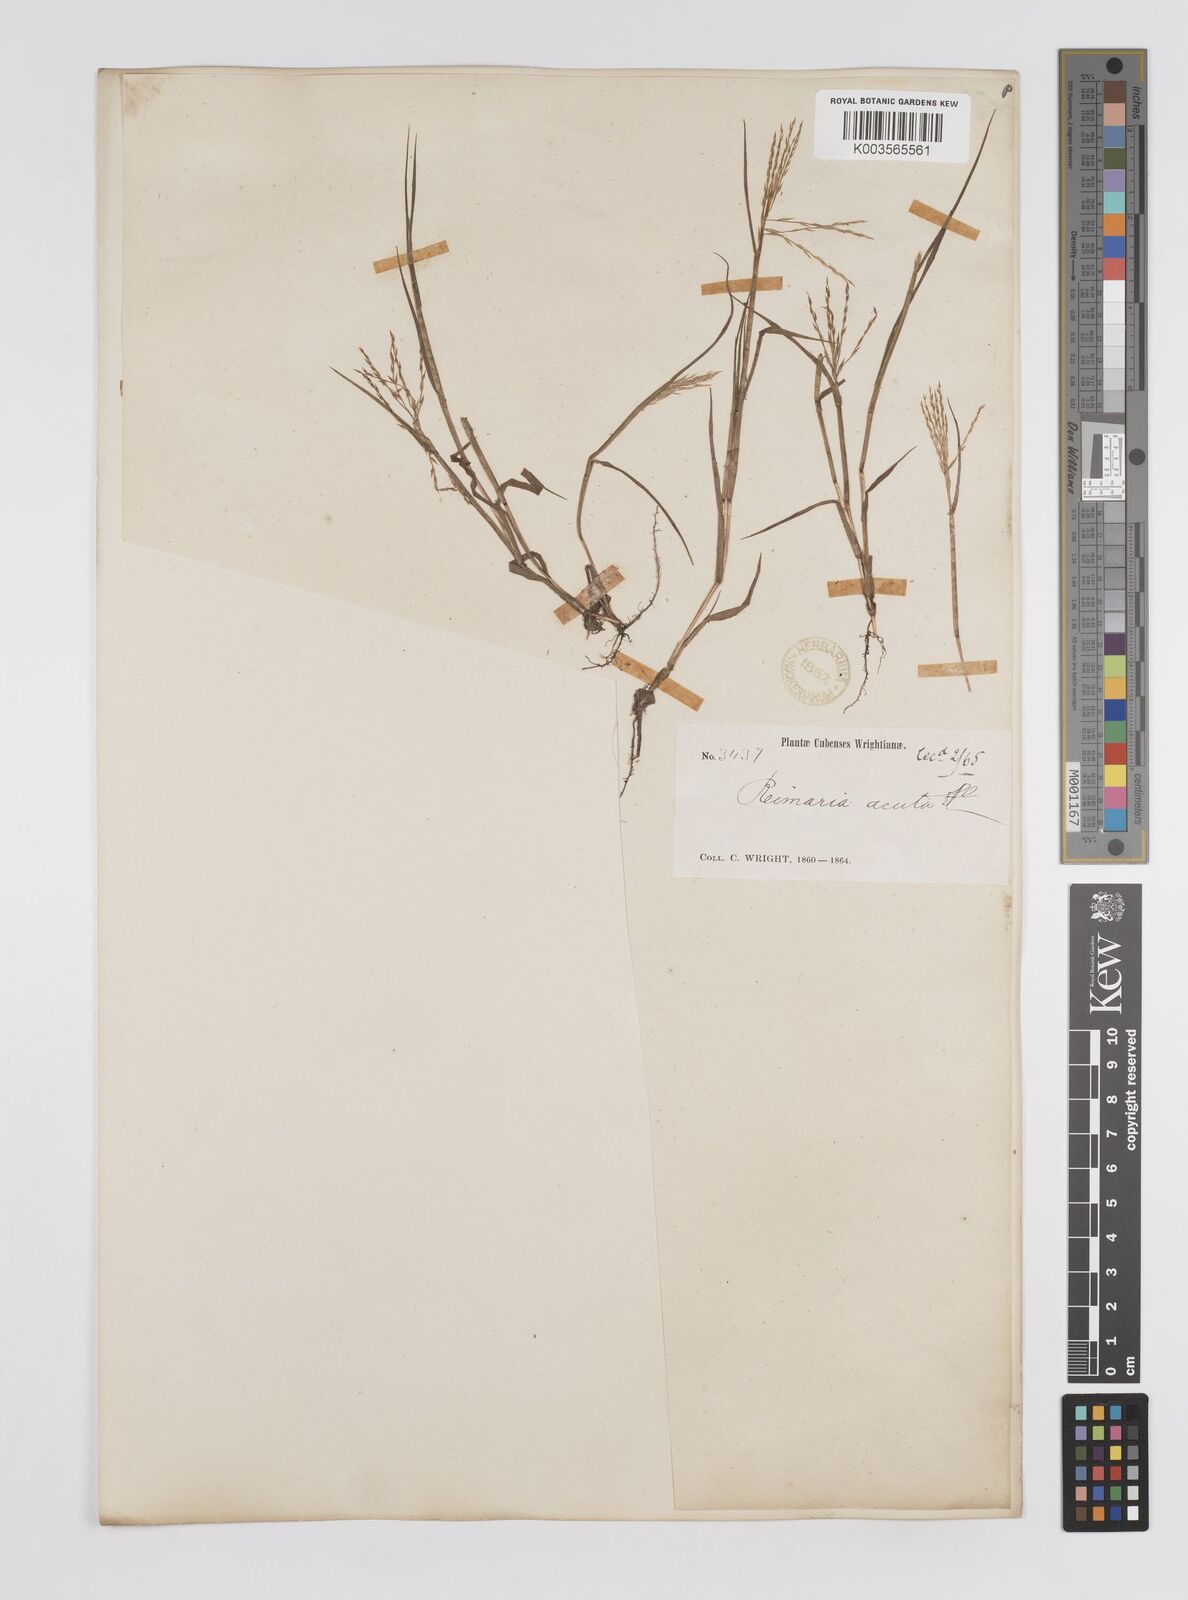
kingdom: Plantae
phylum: Tracheophyta
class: Liliopsida
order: Poales
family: Poaceae
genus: Paspalum
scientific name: Paspalum stagnophilum
